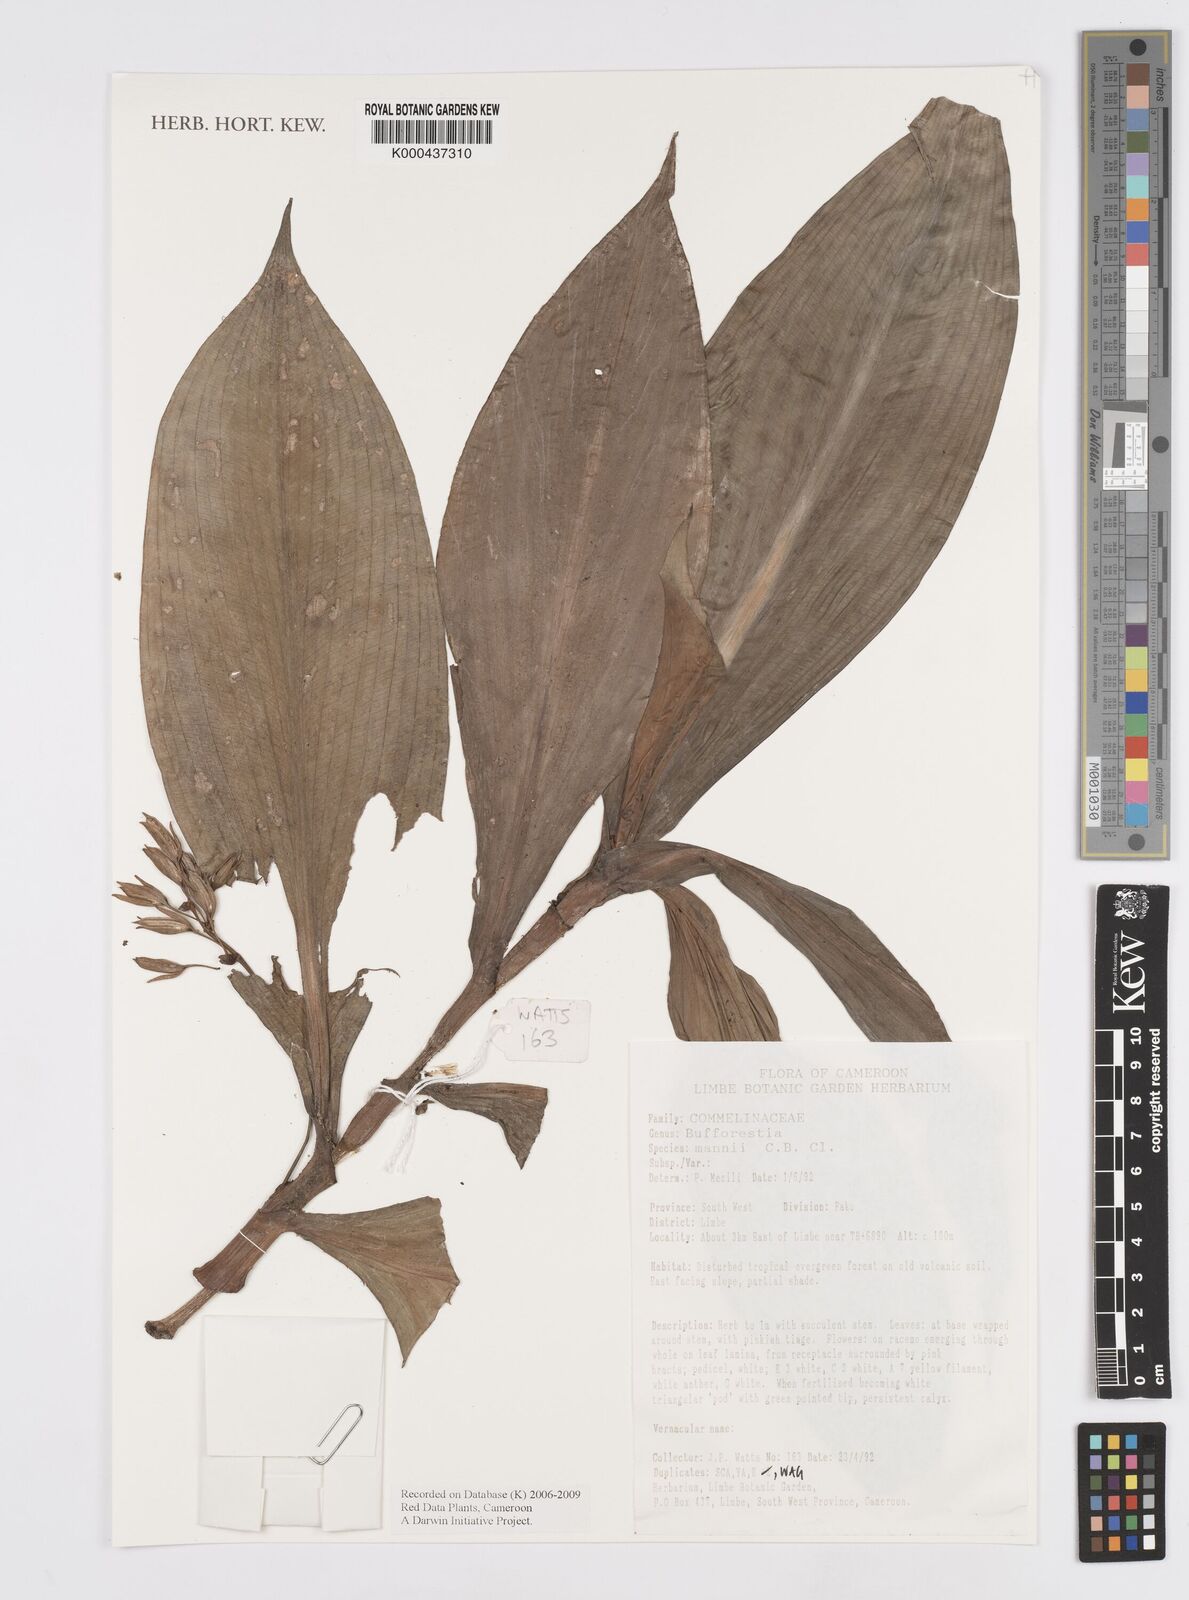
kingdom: Plantae
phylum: Tracheophyta
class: Liliopsida
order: Commelinales
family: Commelinaceae
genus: Buforrestia
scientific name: Buforrestia mannii
